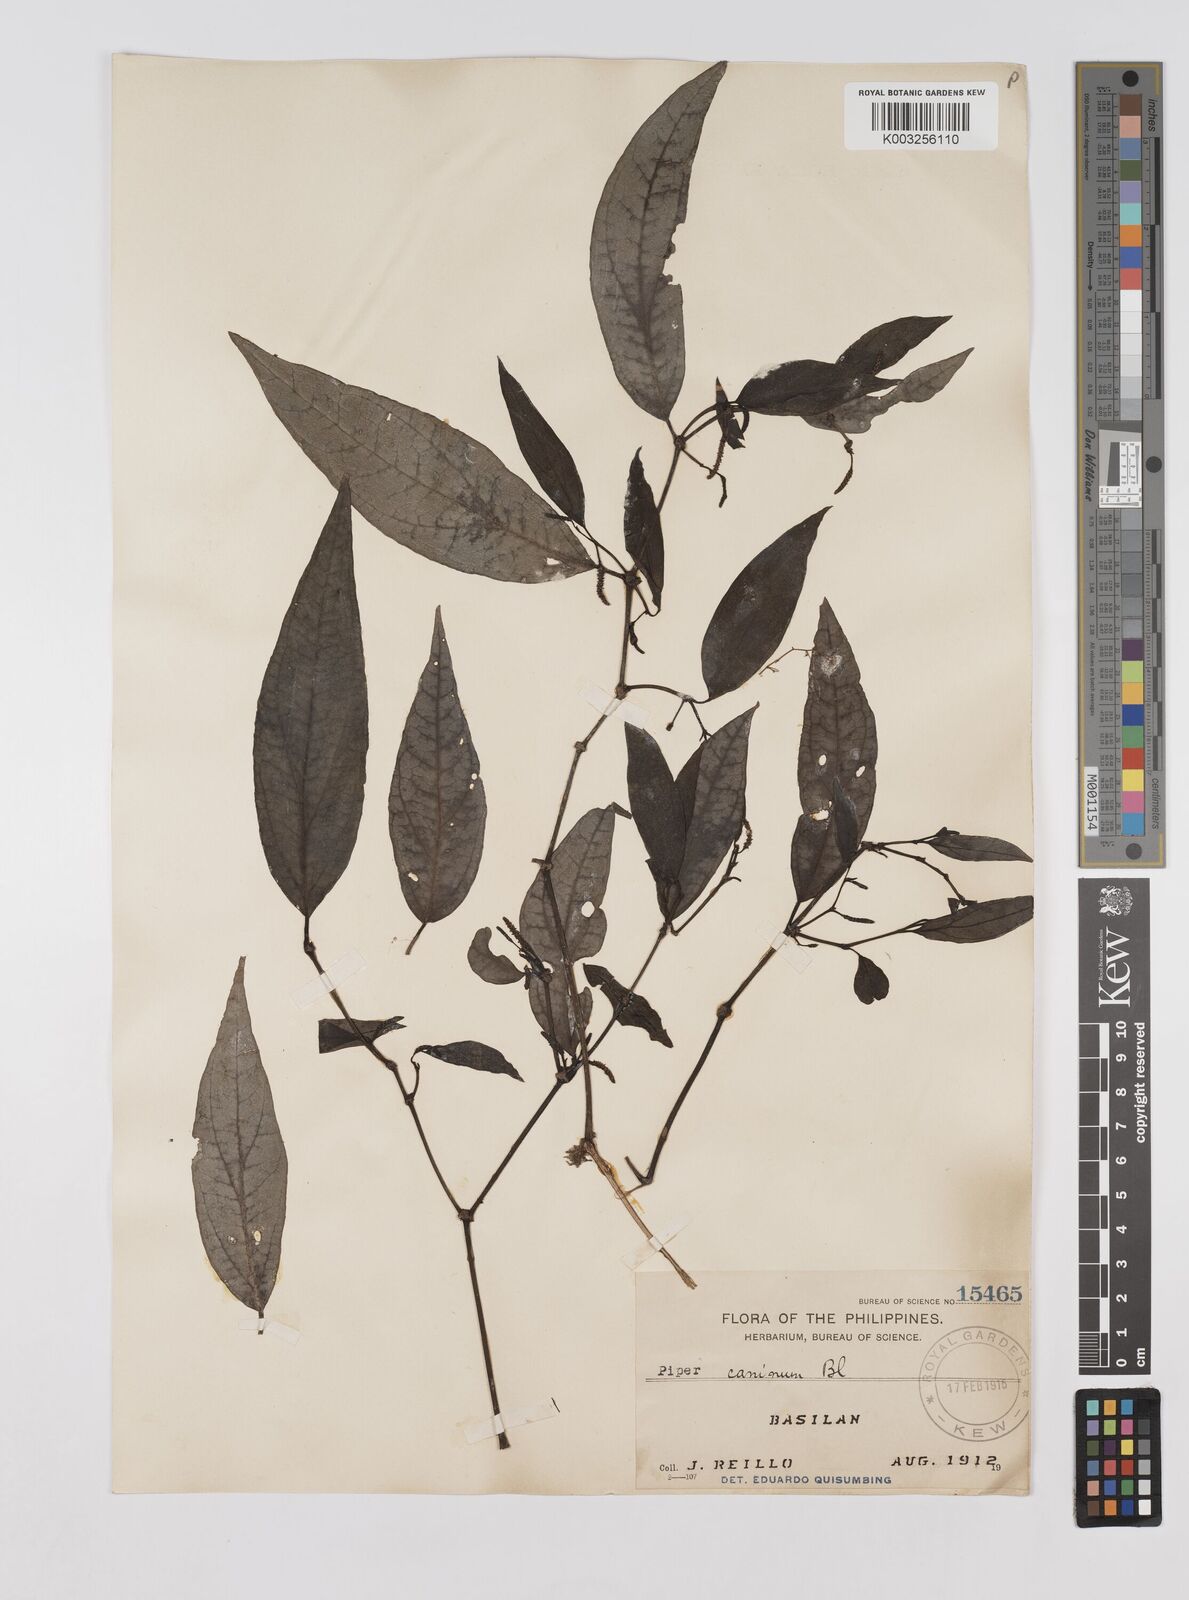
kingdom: Plantae
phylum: Tracheophyta
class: Magnoliopsida
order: Piperales
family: Piperaceae
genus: Piper
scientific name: Piper lanatum
